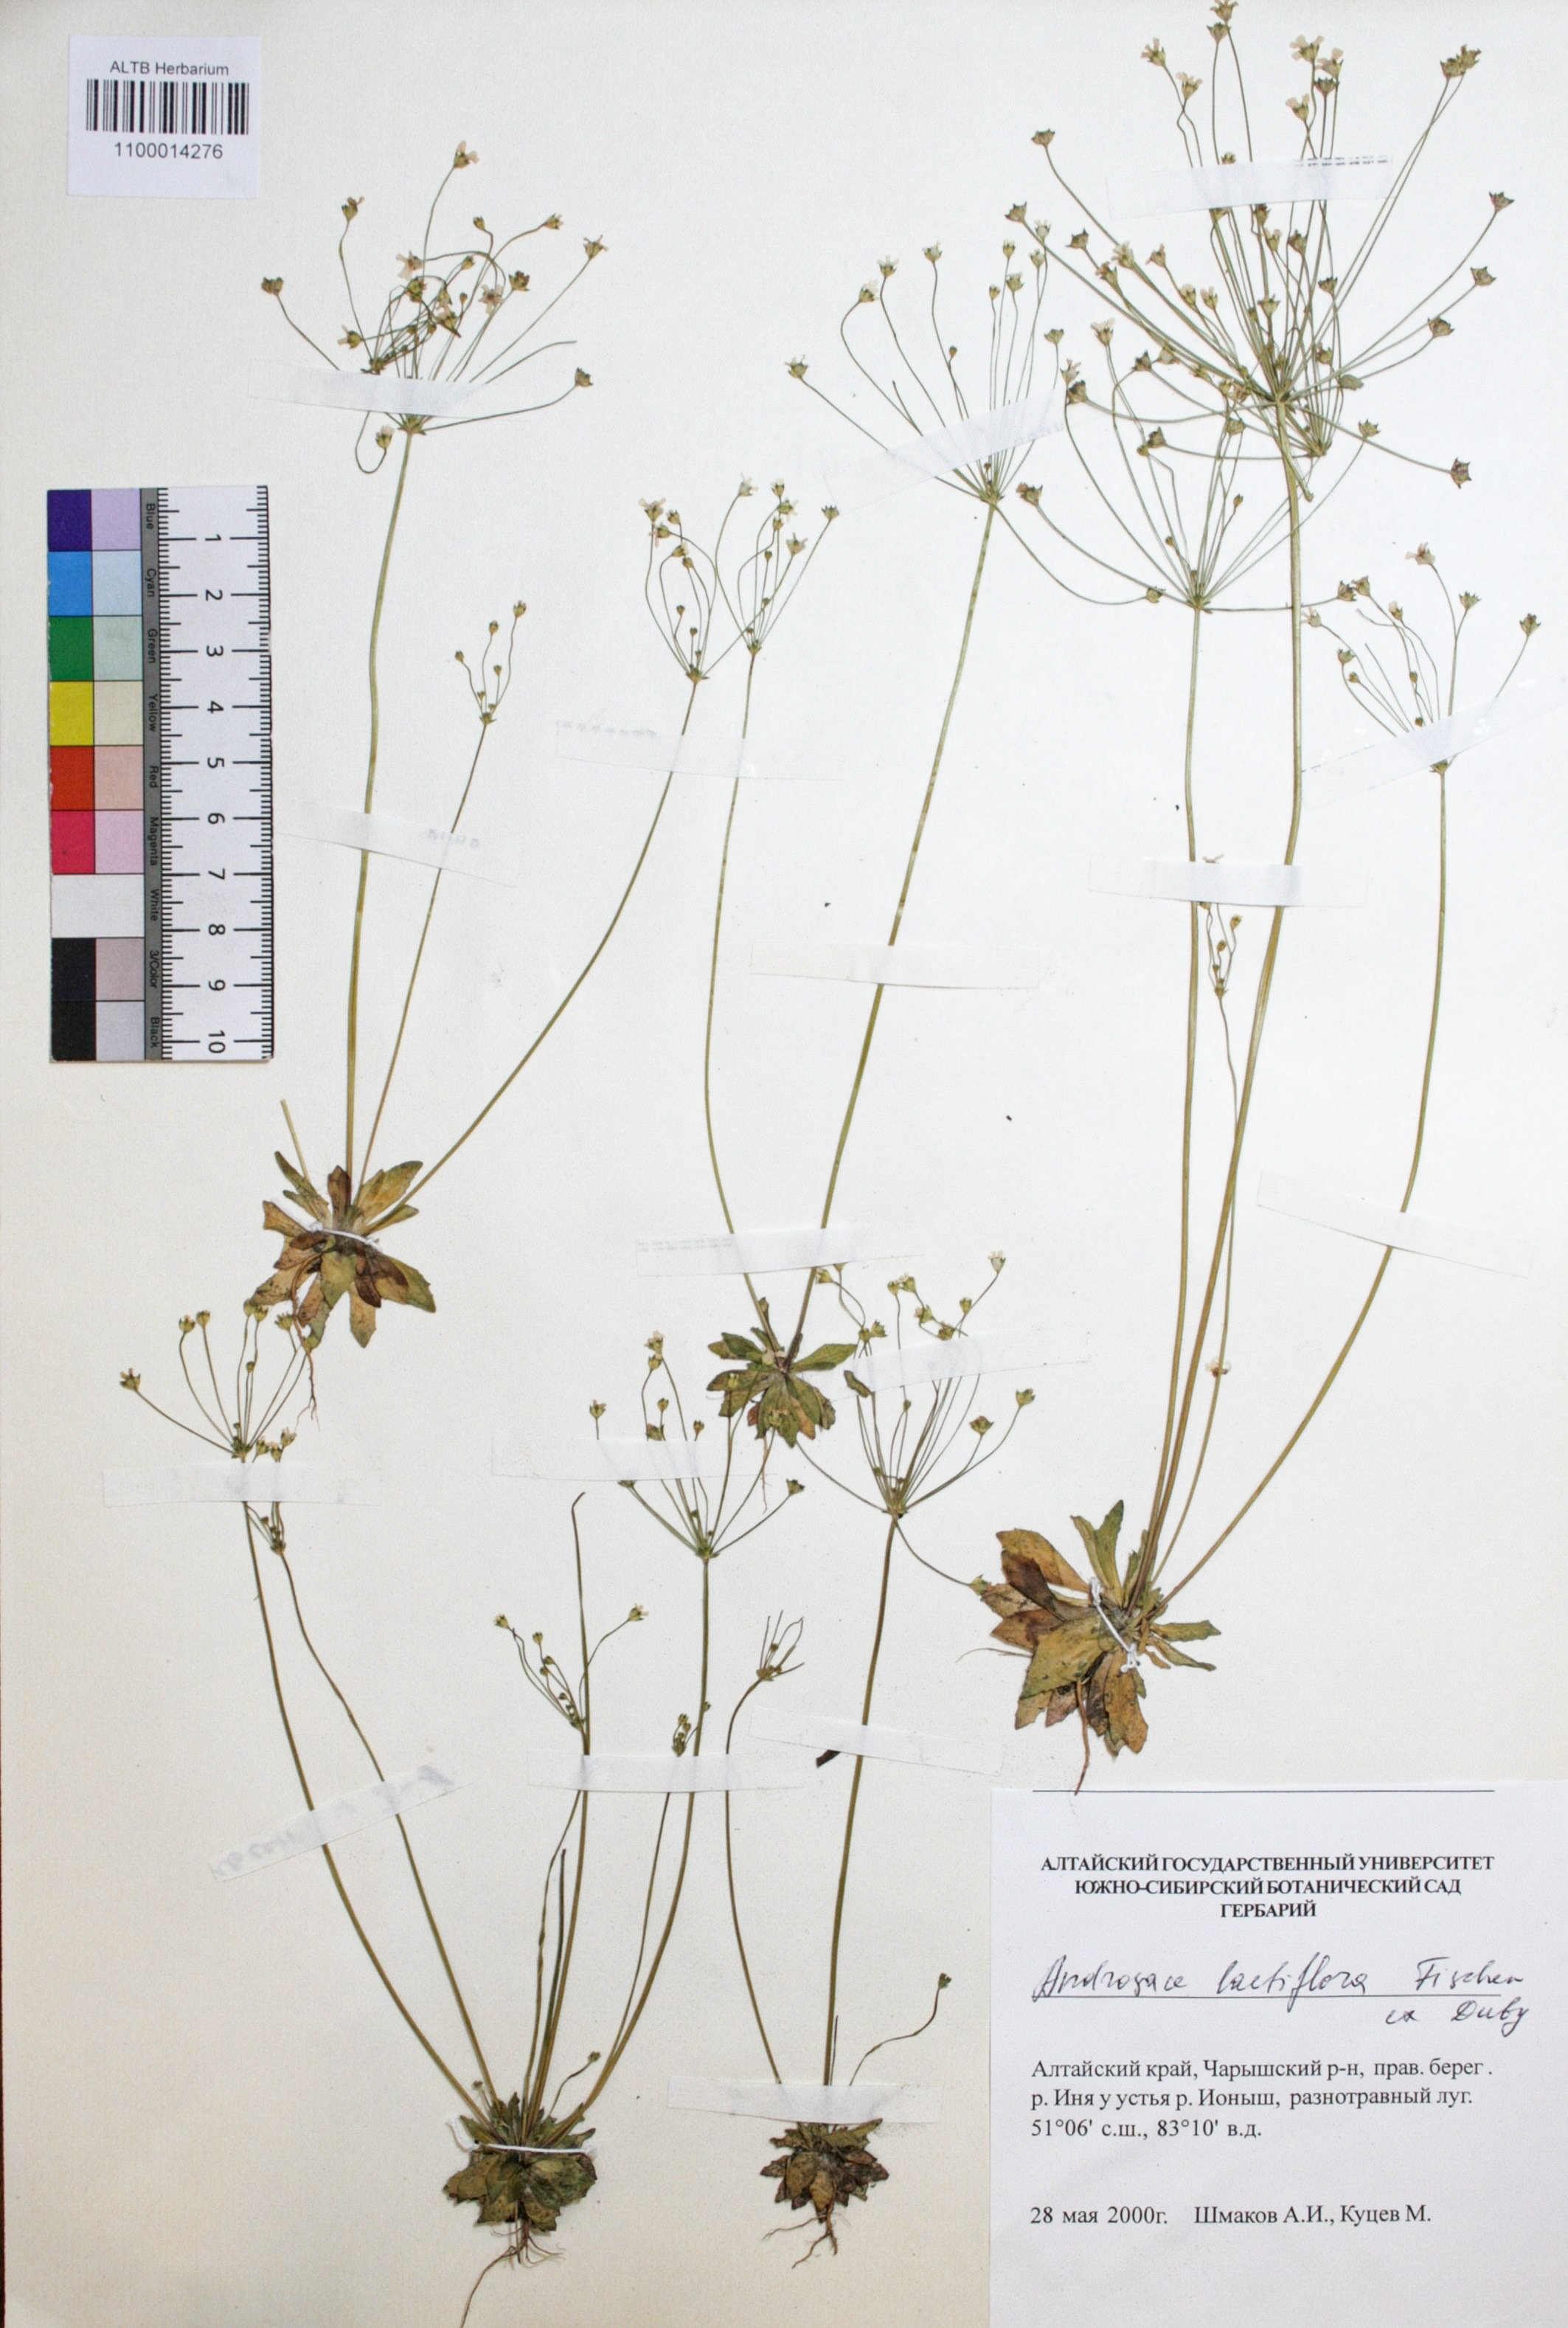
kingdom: Plantae
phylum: Tracheophyta
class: Magnoliopsida
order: Ericales
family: Primulaceae
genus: Androsace
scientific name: Androsace lactiflora
